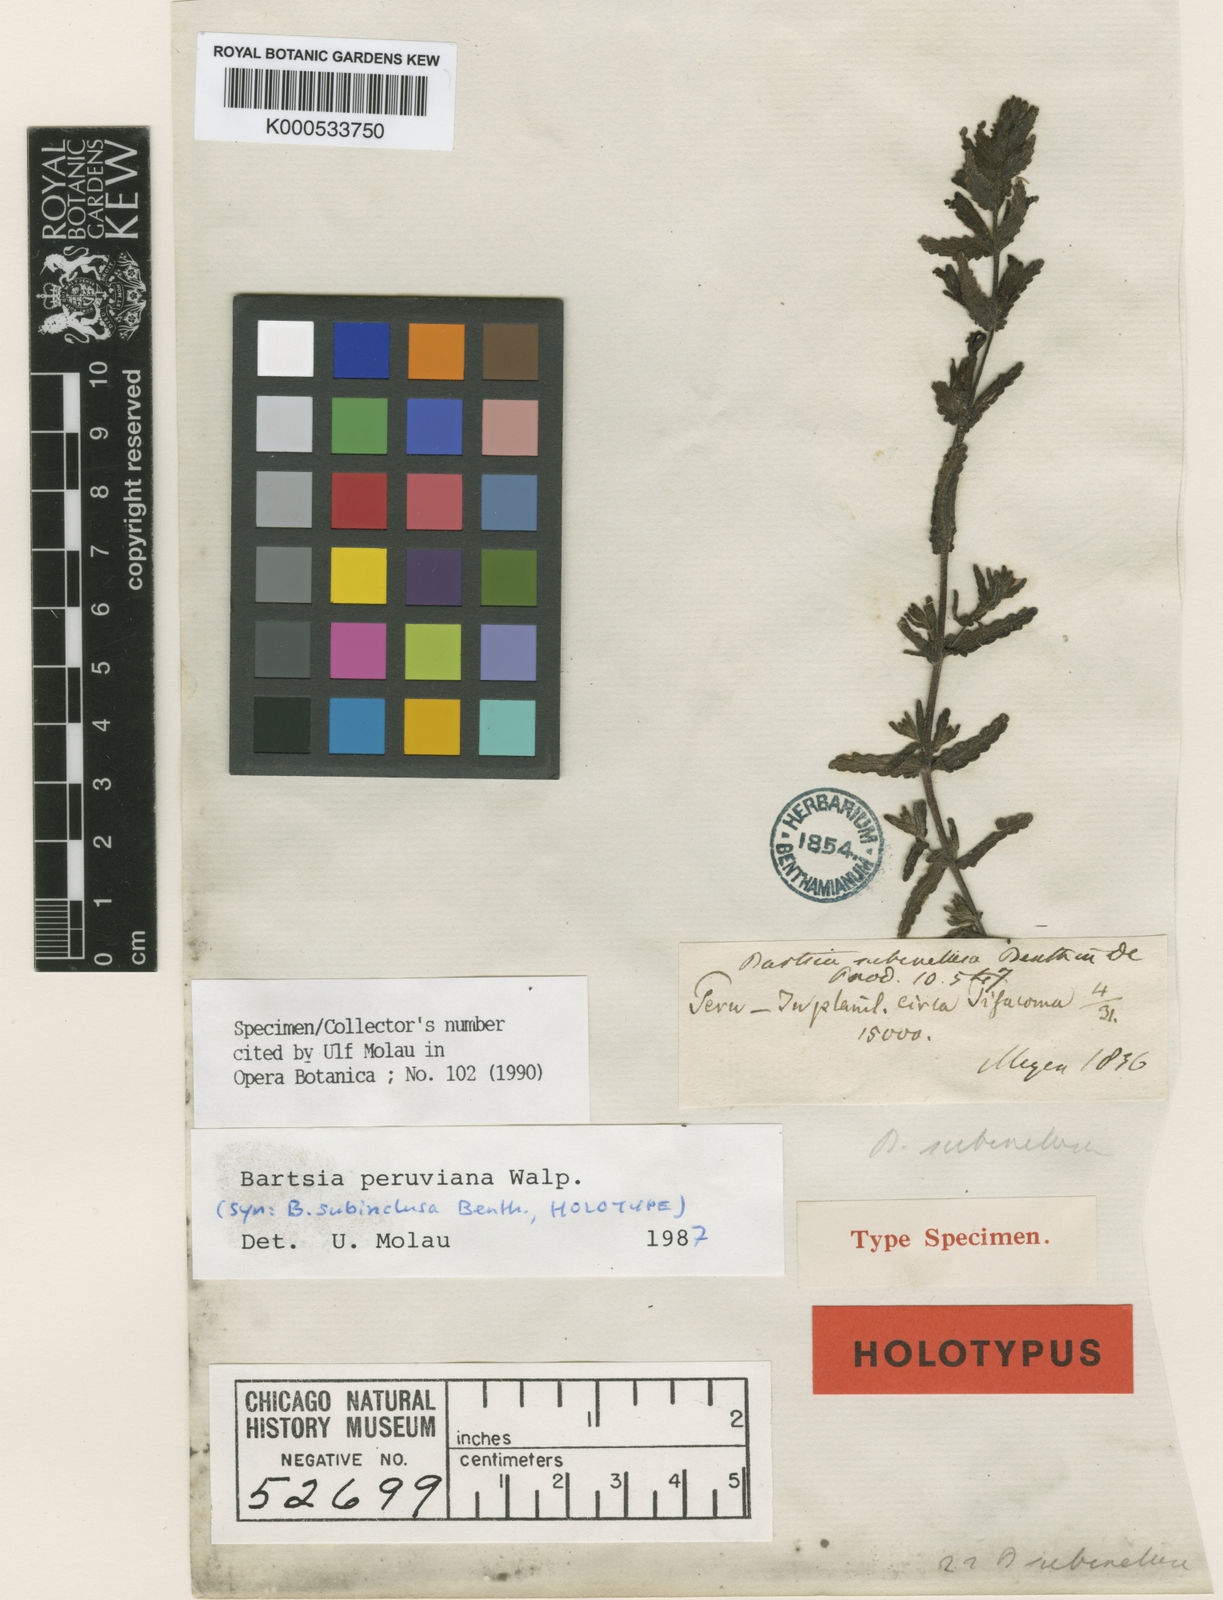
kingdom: Plantae
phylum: Tracheophyta
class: Magnoliopsida
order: Lamiales
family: Orobanchaceae
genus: Neobartsia
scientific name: Neobartsia peruviana
